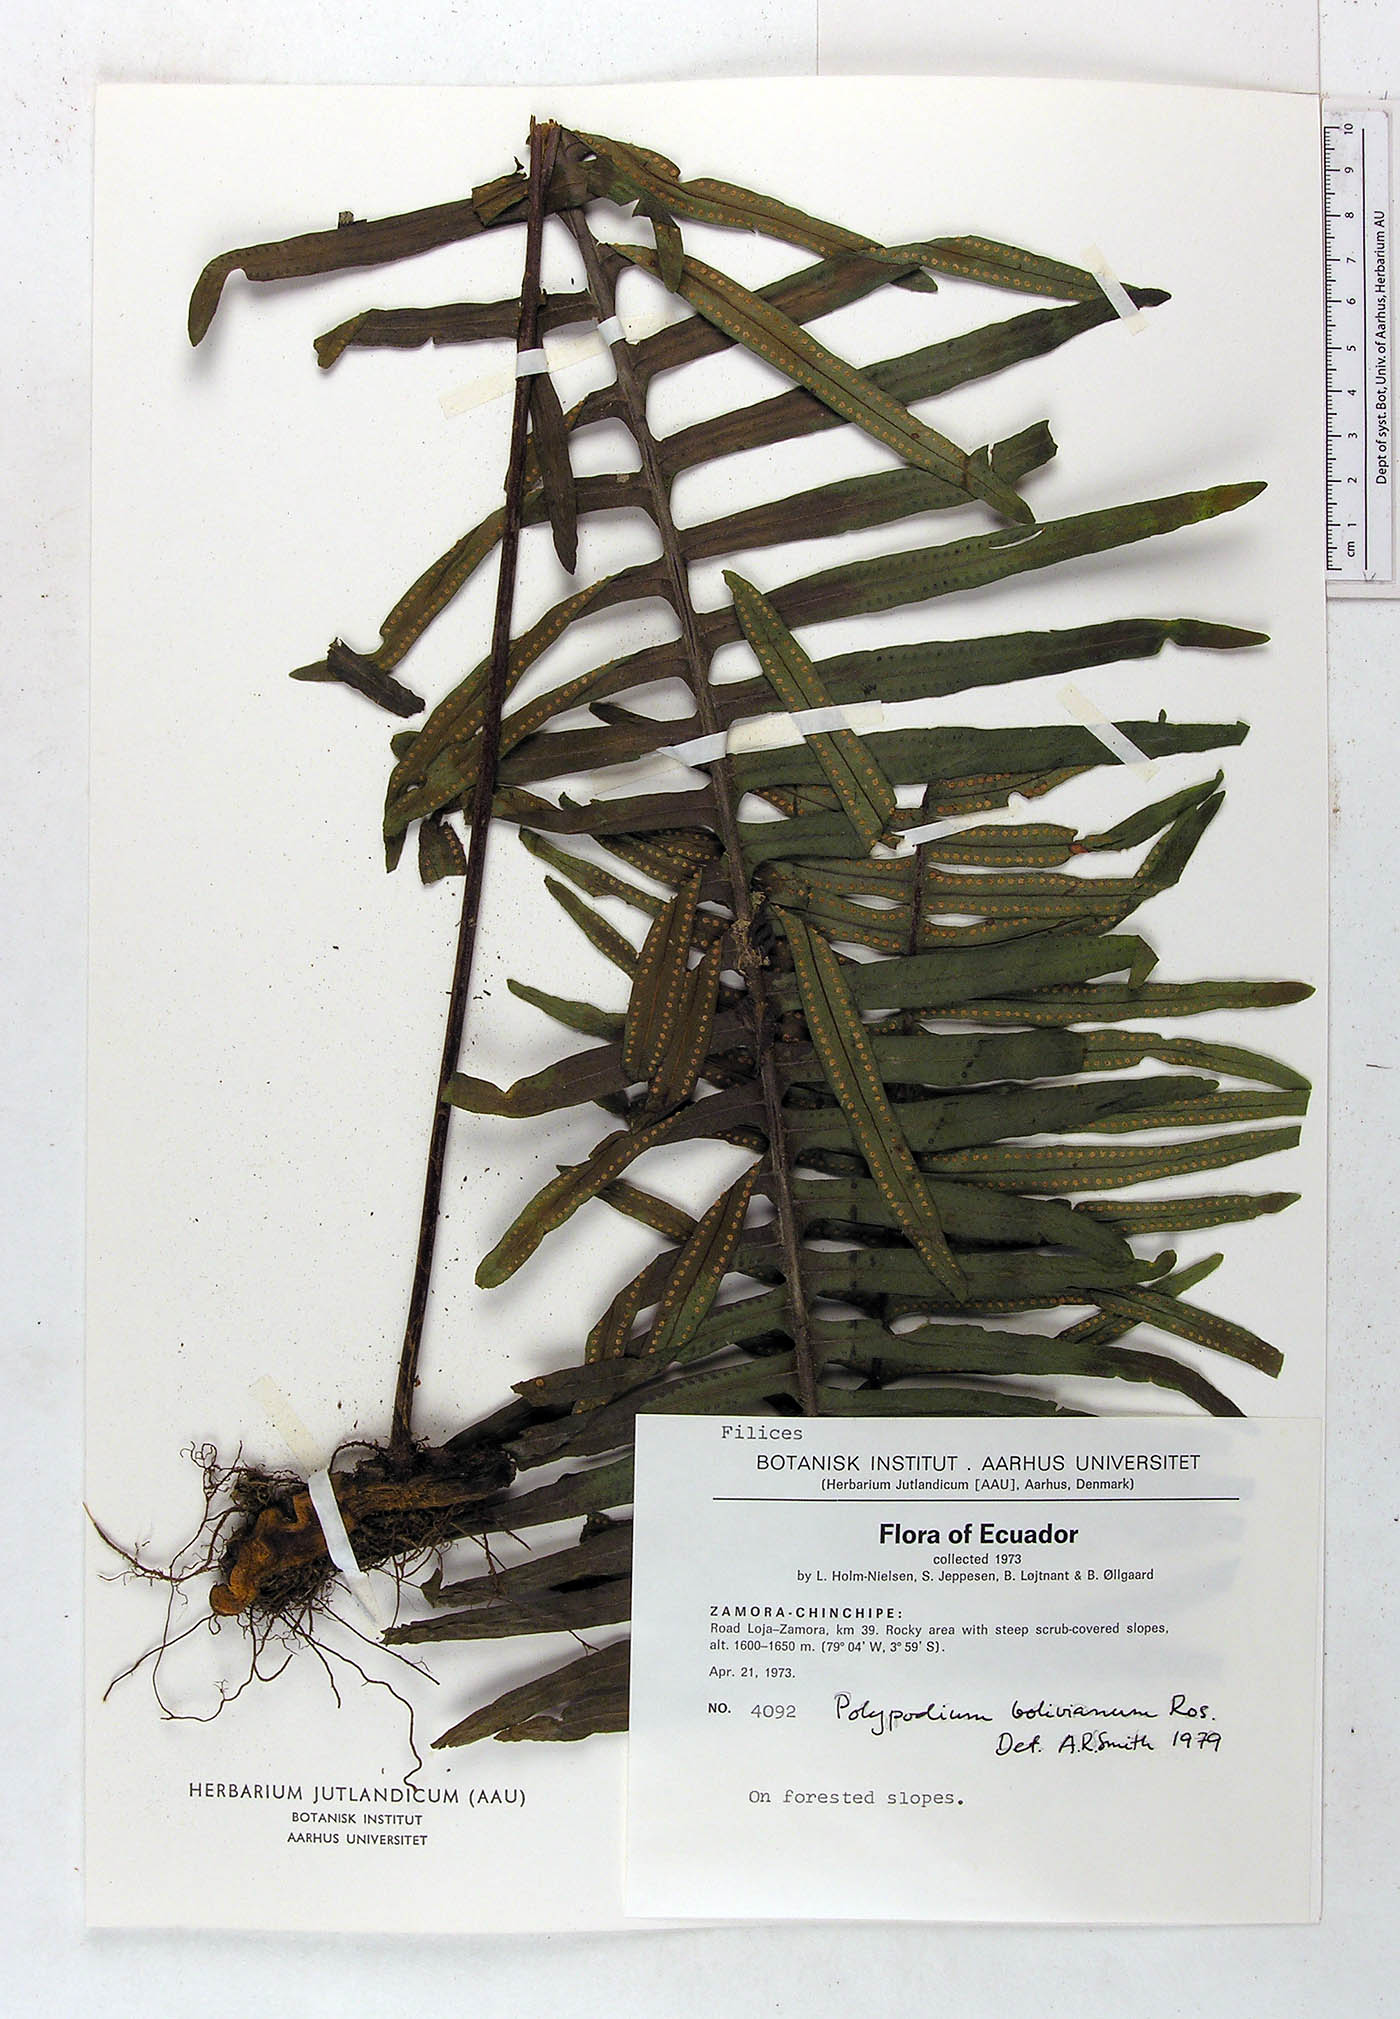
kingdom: Plantae
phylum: Tracheophyta
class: Polypodiopsida
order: Polypodiales
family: Polypodiaceae
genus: Pecluma
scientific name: Pecluma divaricata
